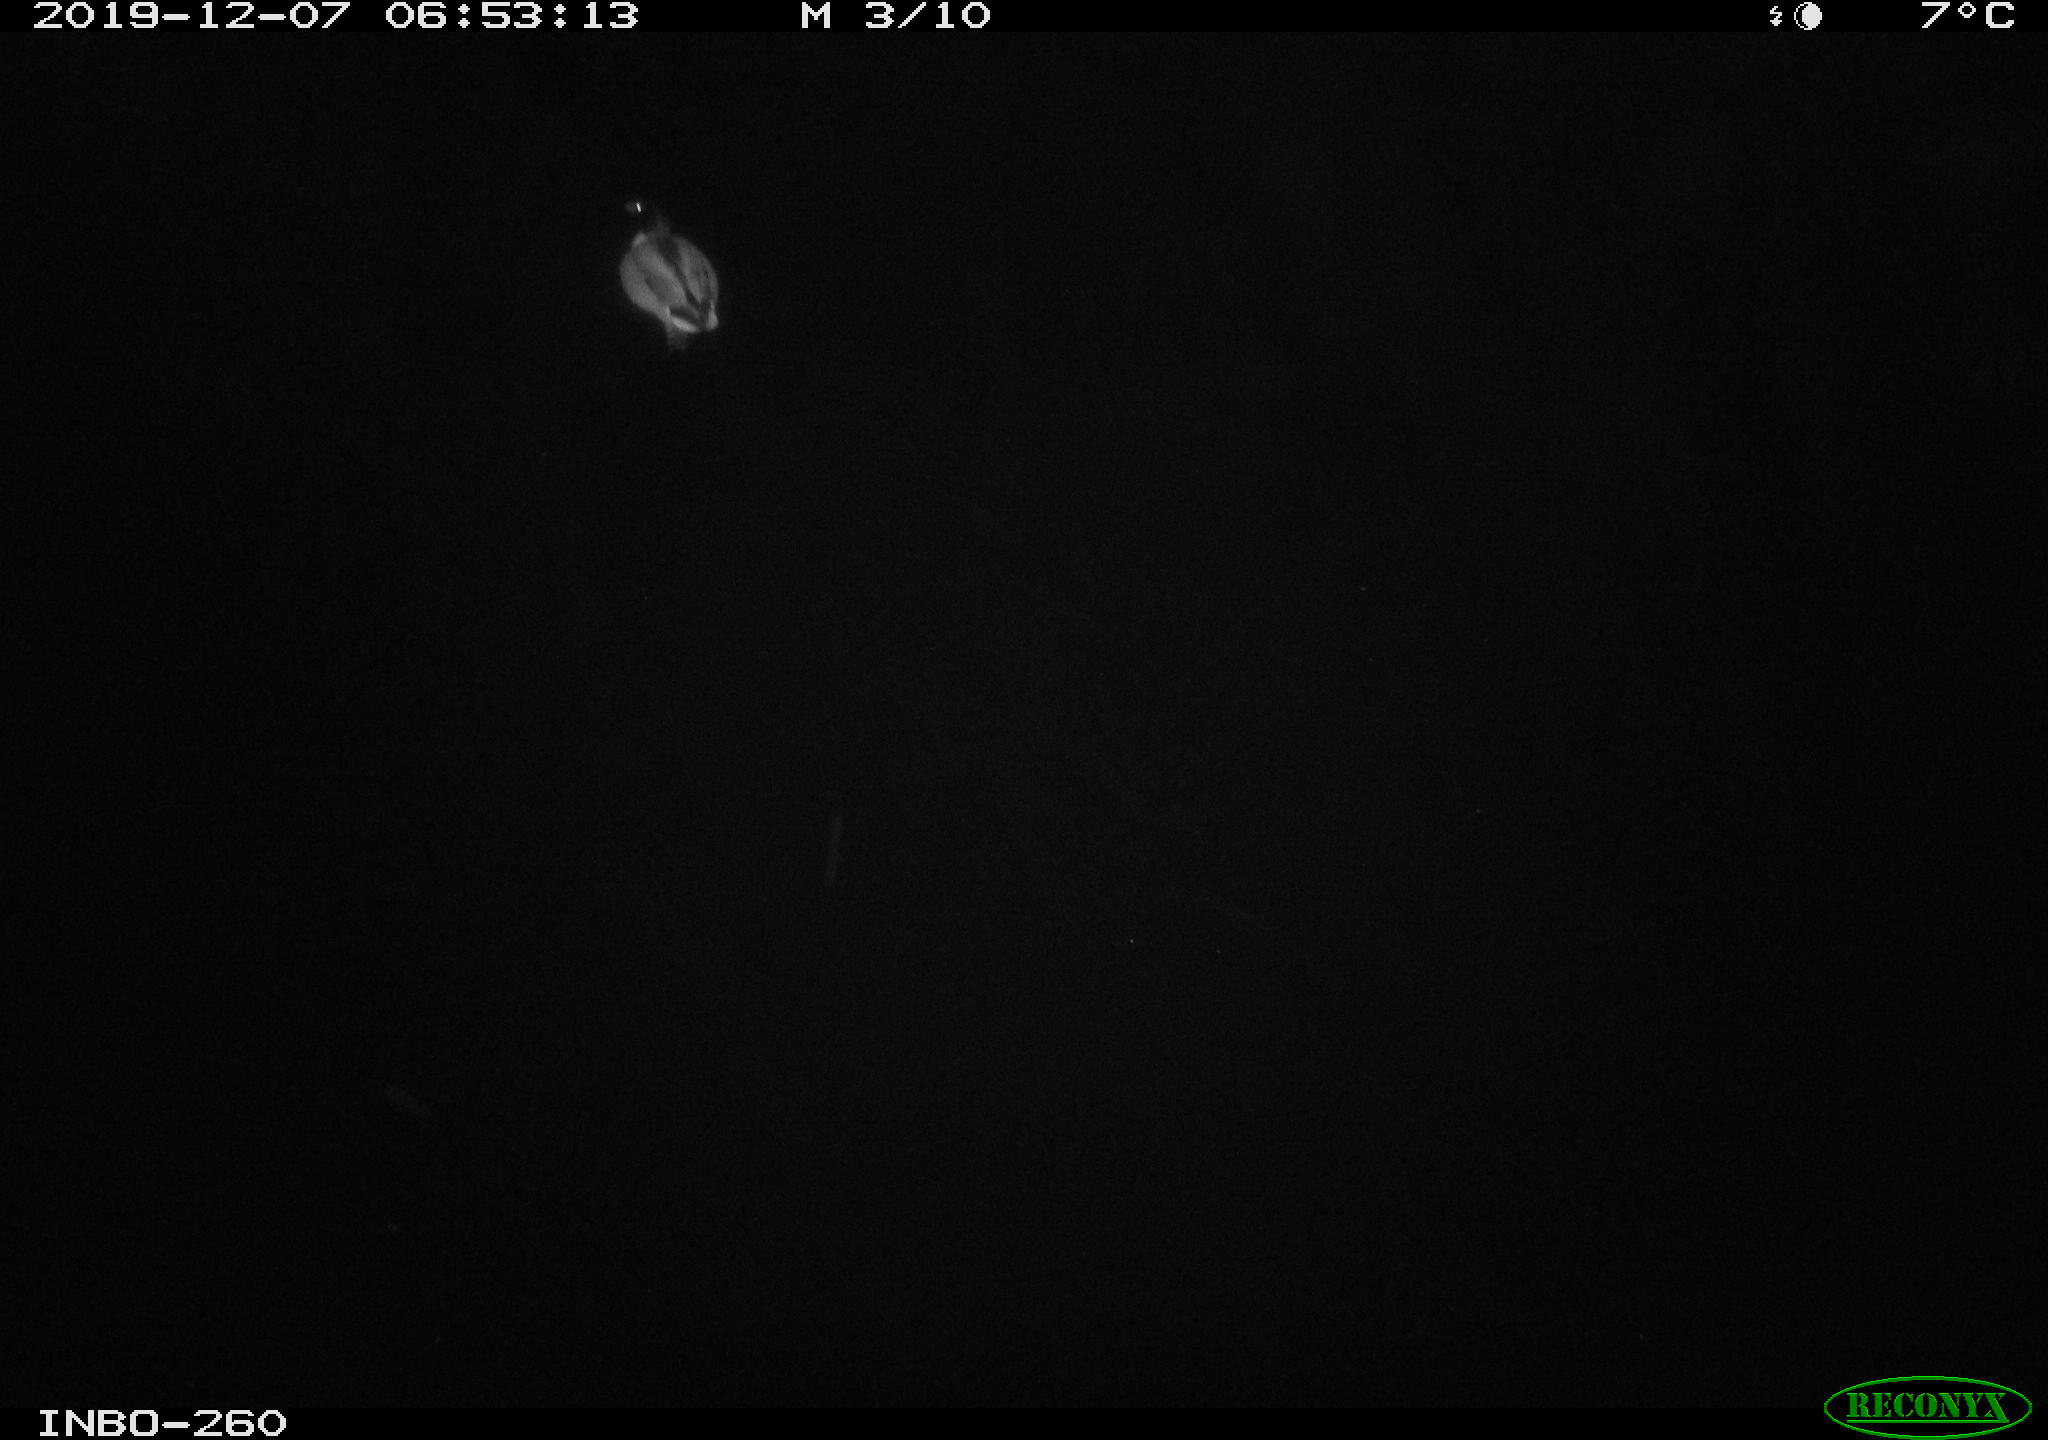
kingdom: Animalia
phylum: Chordata
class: Aves
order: Anseriformes
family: Anatidae
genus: Anas
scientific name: Anas platyrhynchos
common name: Mallard
